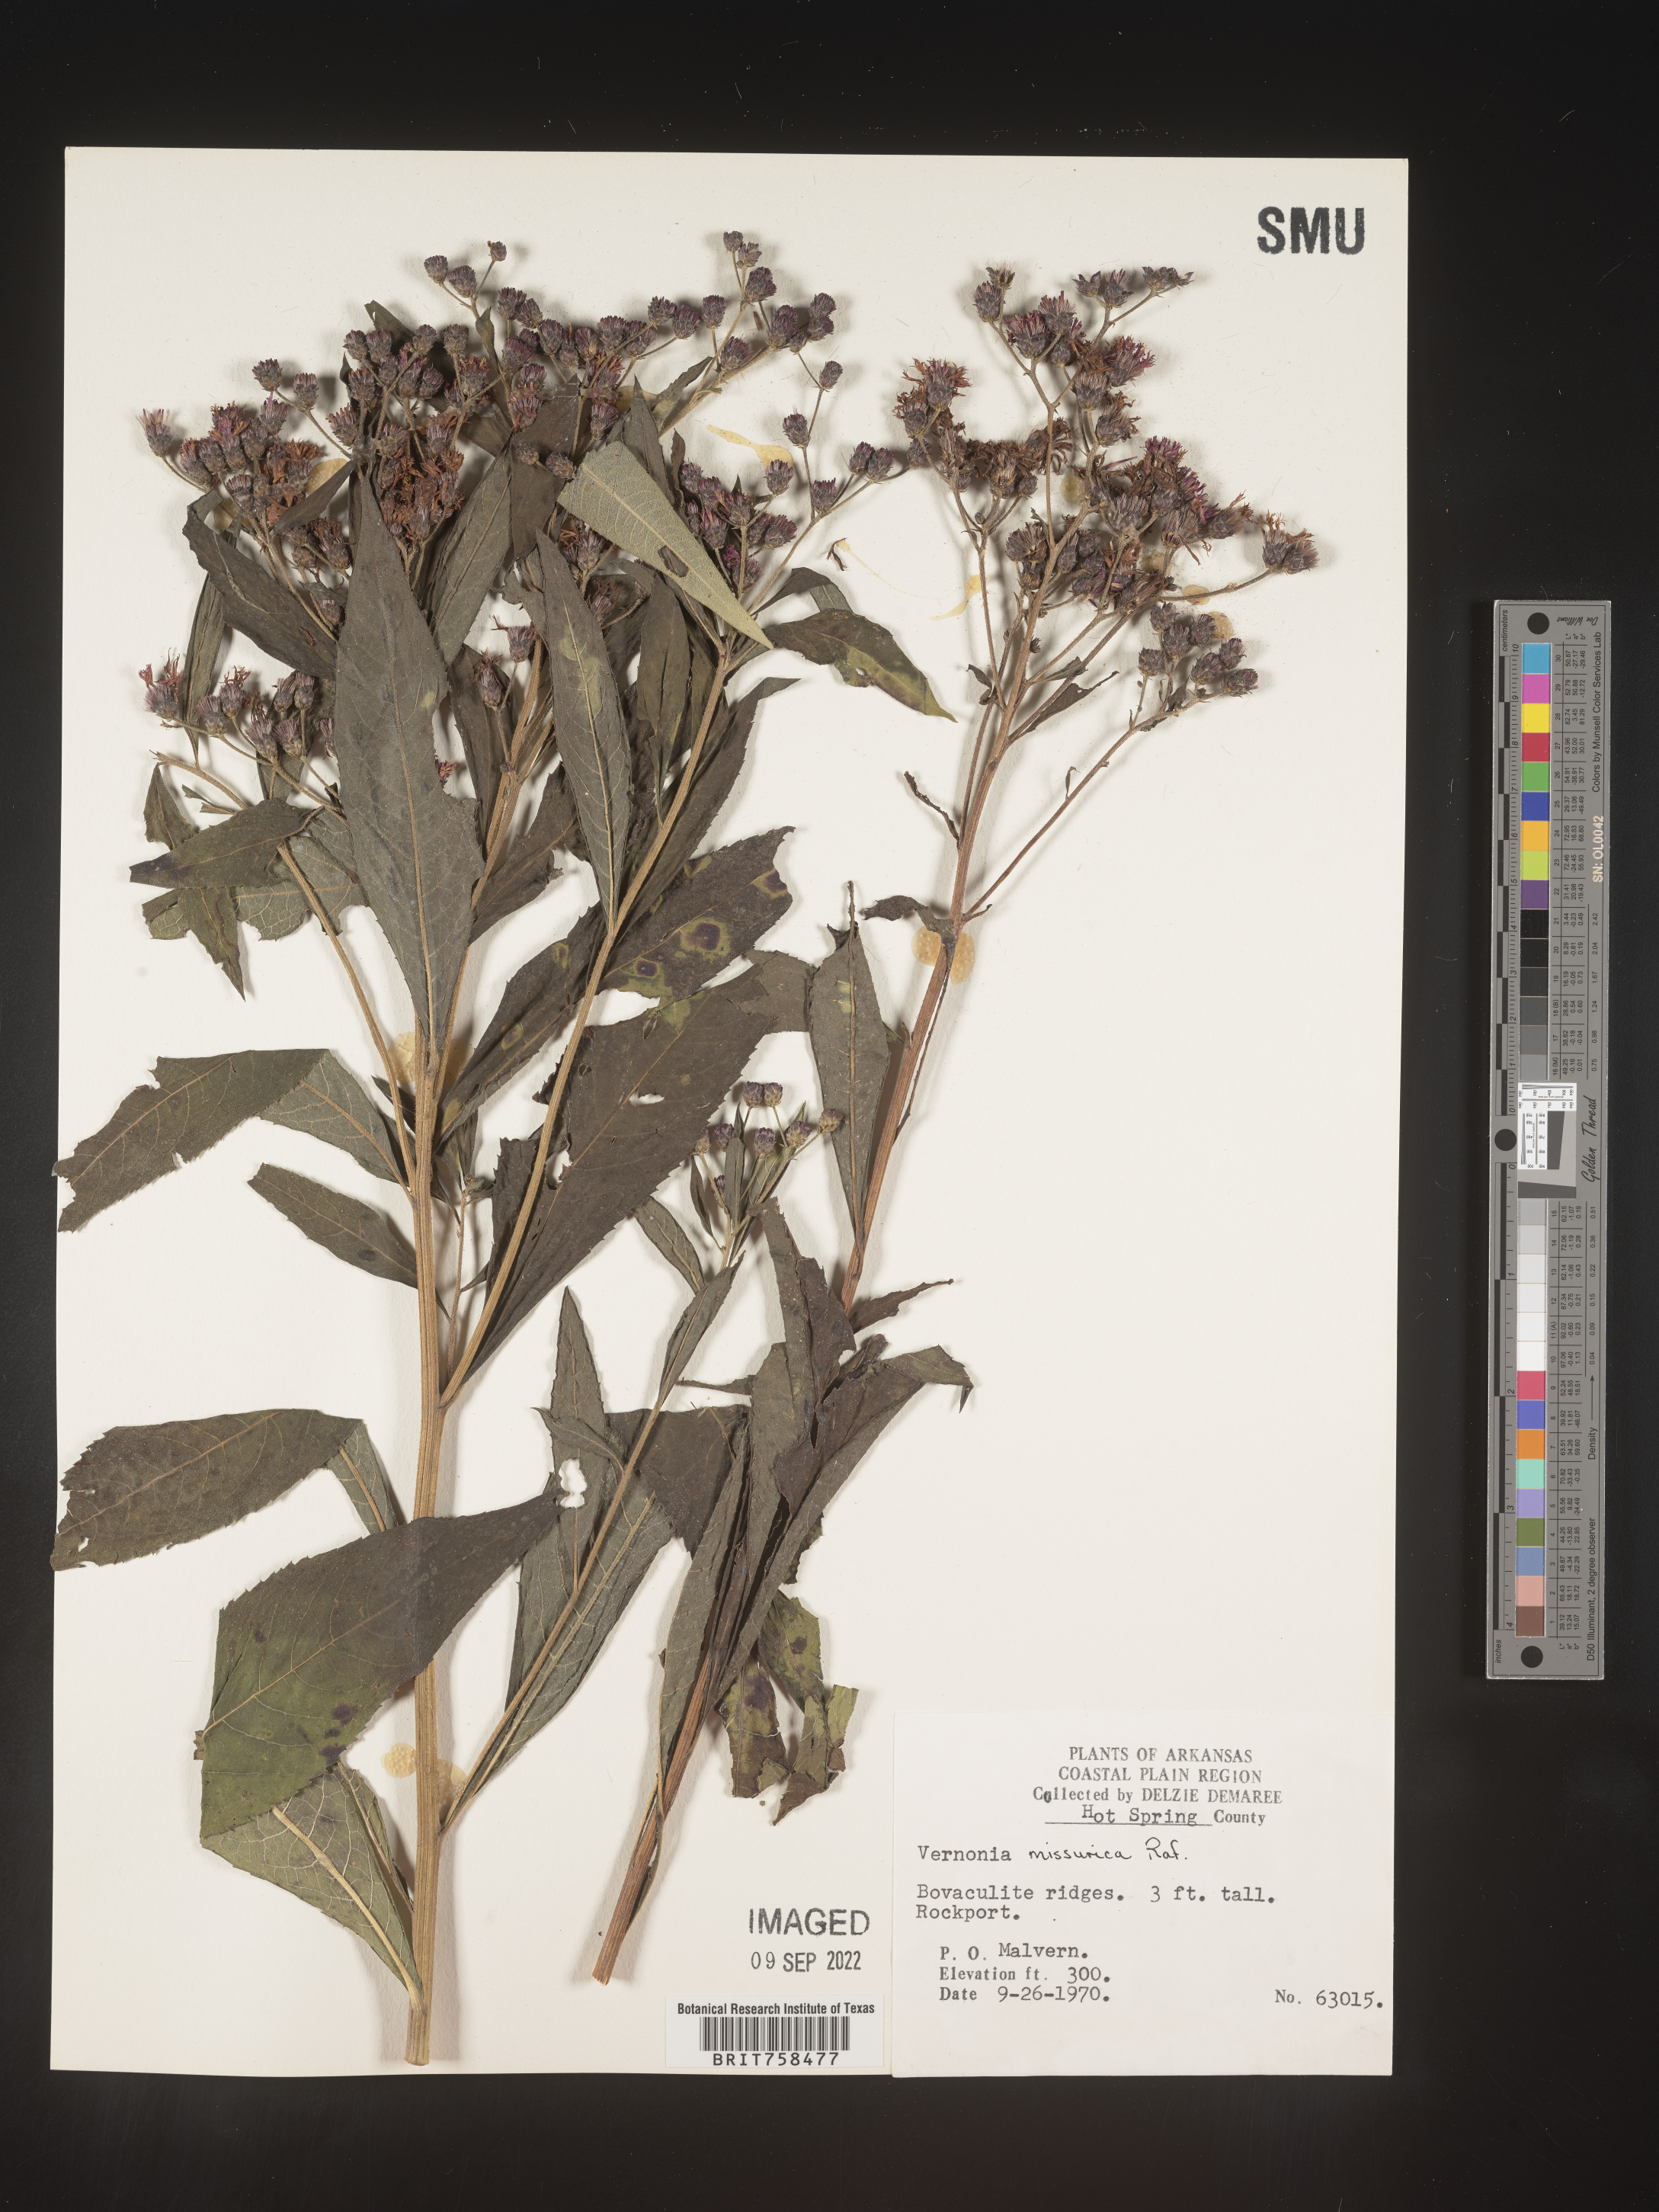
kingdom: Plantae
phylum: Tracheophyta
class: Magnoliopsida
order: Asterales
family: Asteraceae
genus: Vernonia
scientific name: Vernonia missurica
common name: Missouri ironweed
